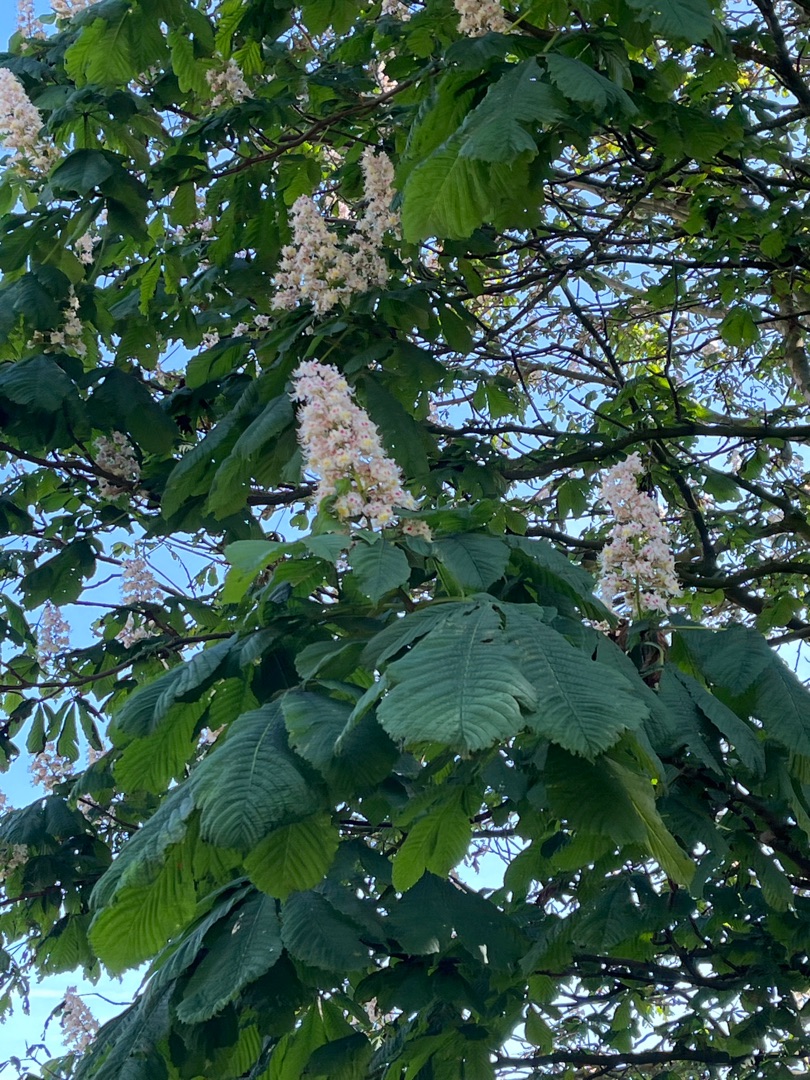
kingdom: Plantae
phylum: Tracheophyta
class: Magnoliopsida
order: Sapindales
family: Sapindaceae
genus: Aesculus
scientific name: Aesculus hippocastanum
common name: Hestekastanie
